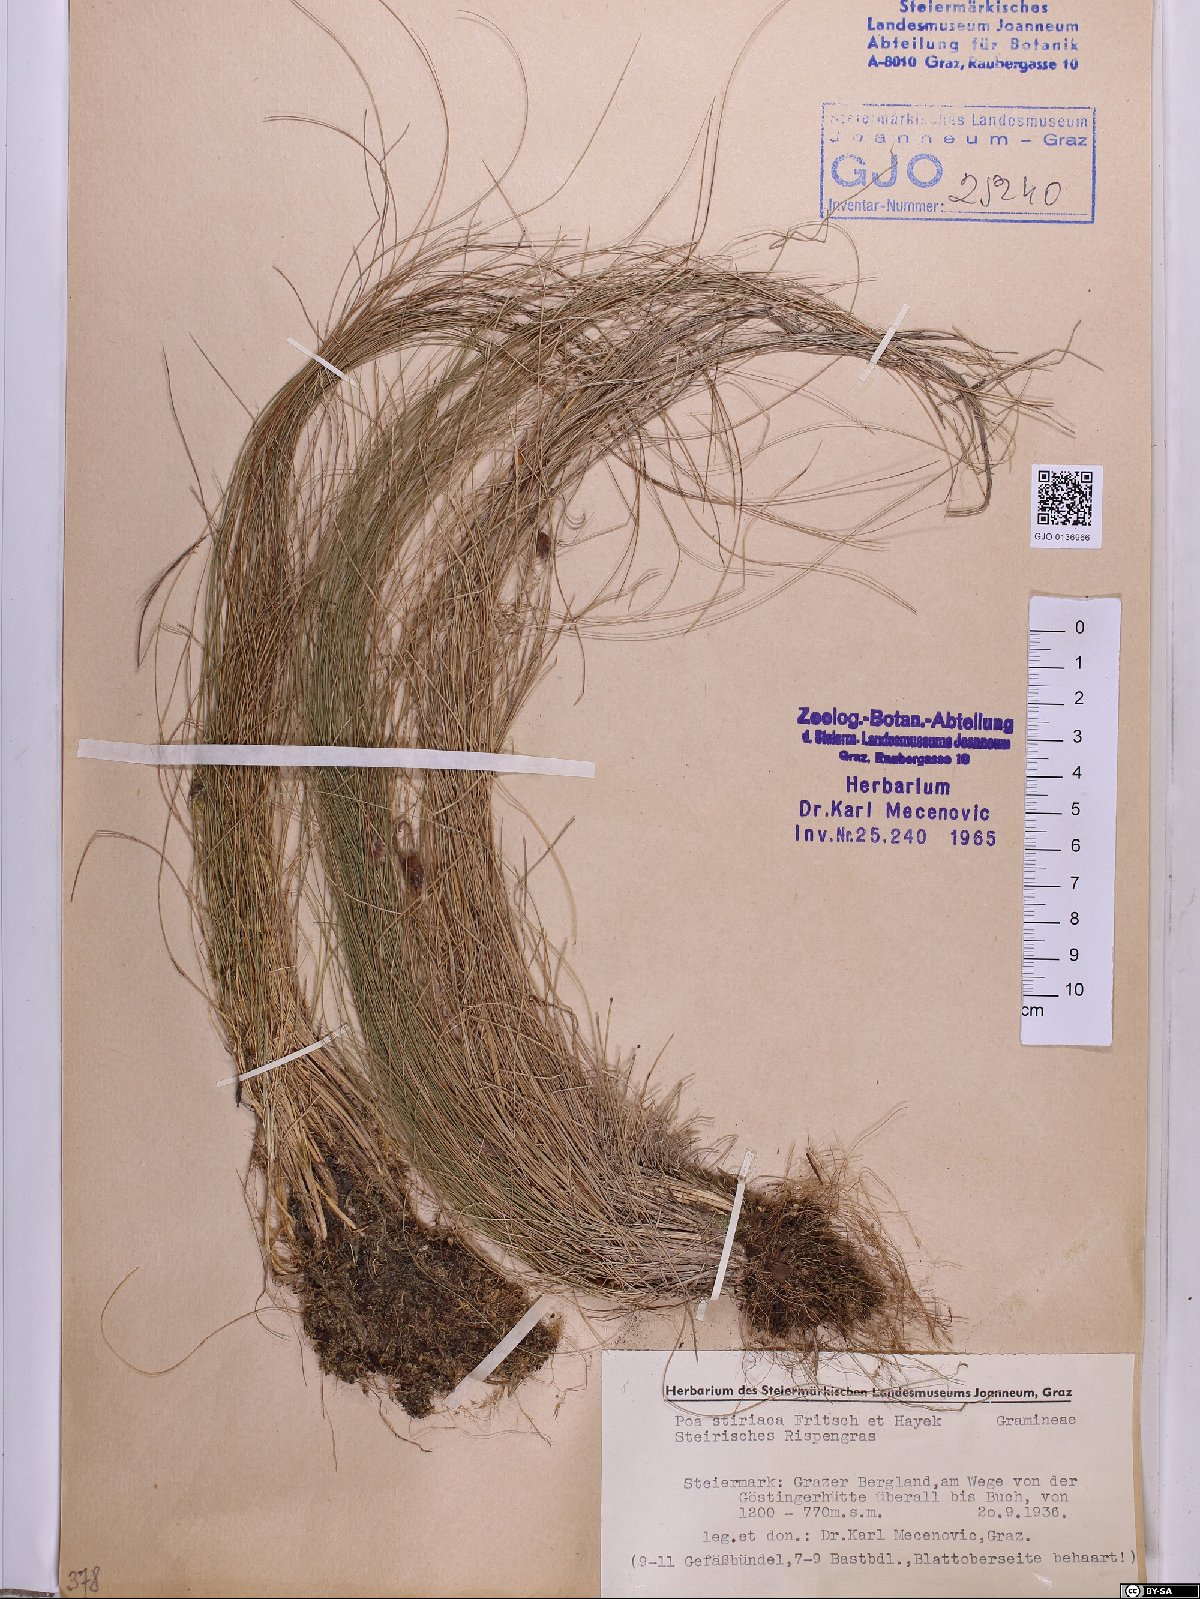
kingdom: Plantae
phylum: Tracheophyta
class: Liliopsida
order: Poales
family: Poaceae
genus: Poa
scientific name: Poa stiriaca
